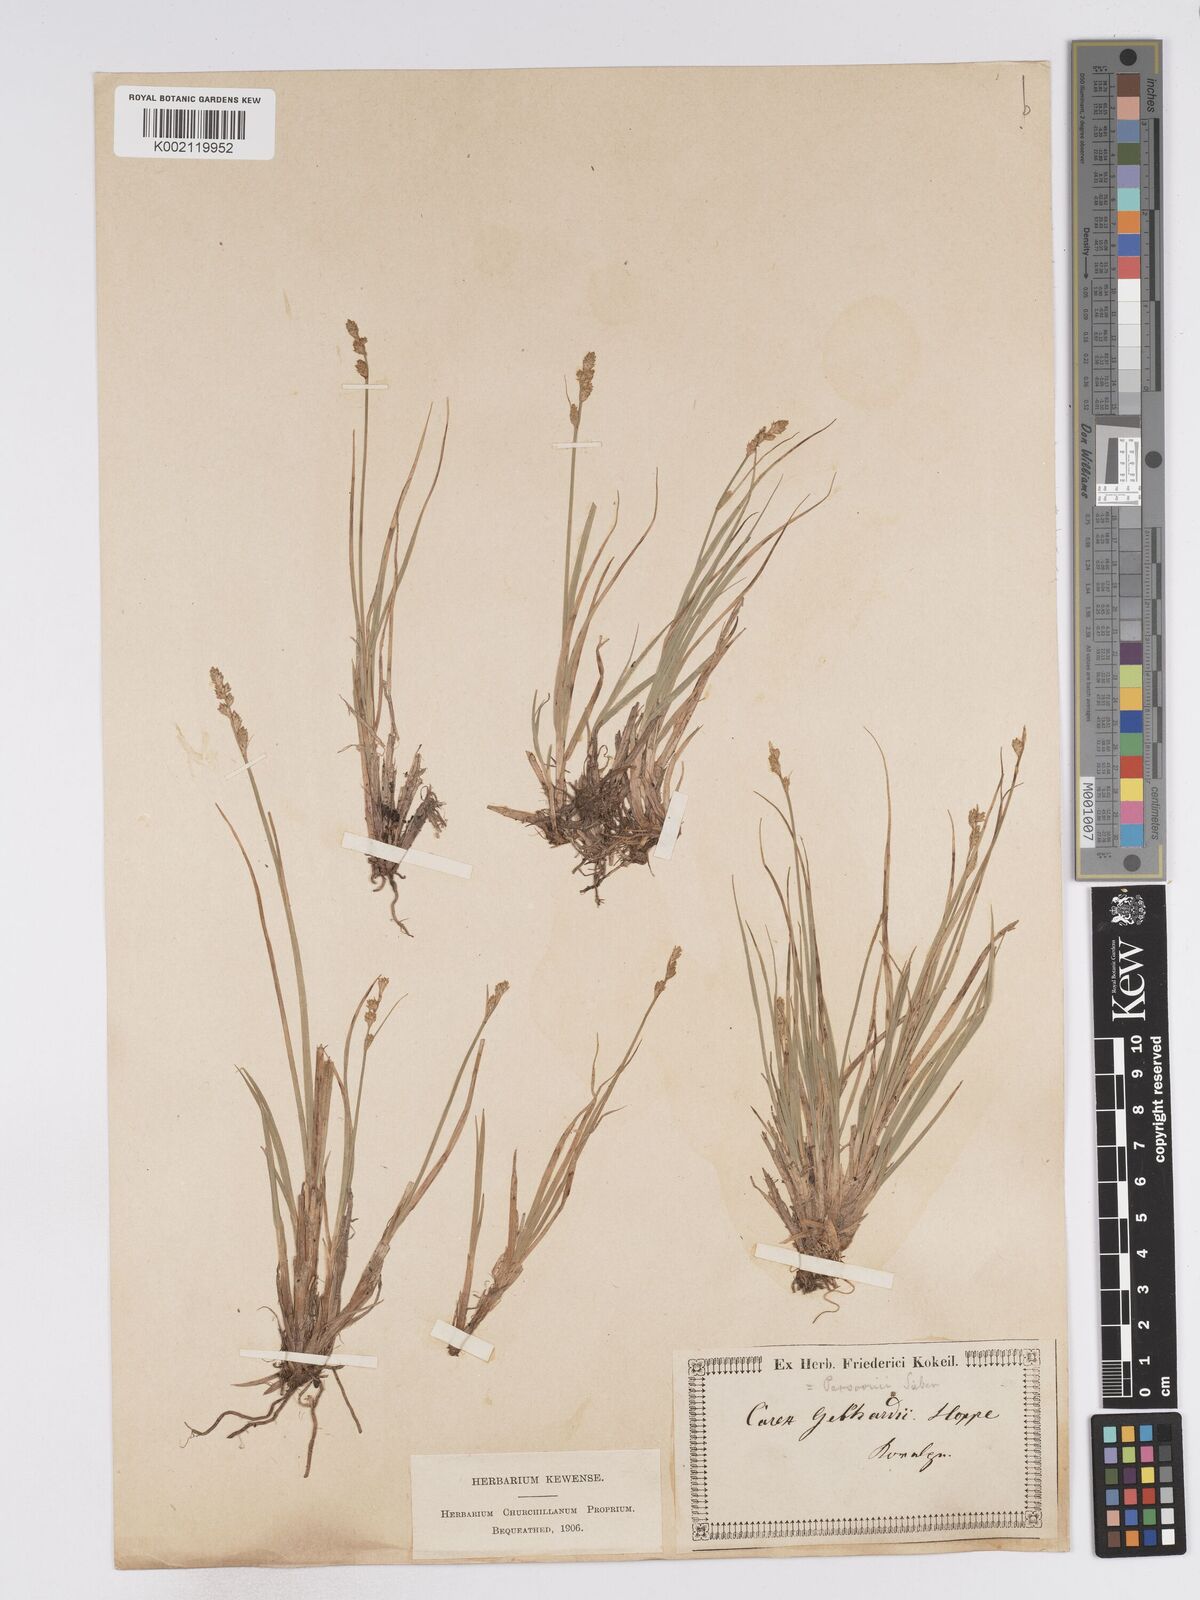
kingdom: Plantae
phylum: Tracheophyta
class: Liliopsida
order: Poales
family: Cyperaceae
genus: Carex
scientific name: Carex canescens
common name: White sedge
